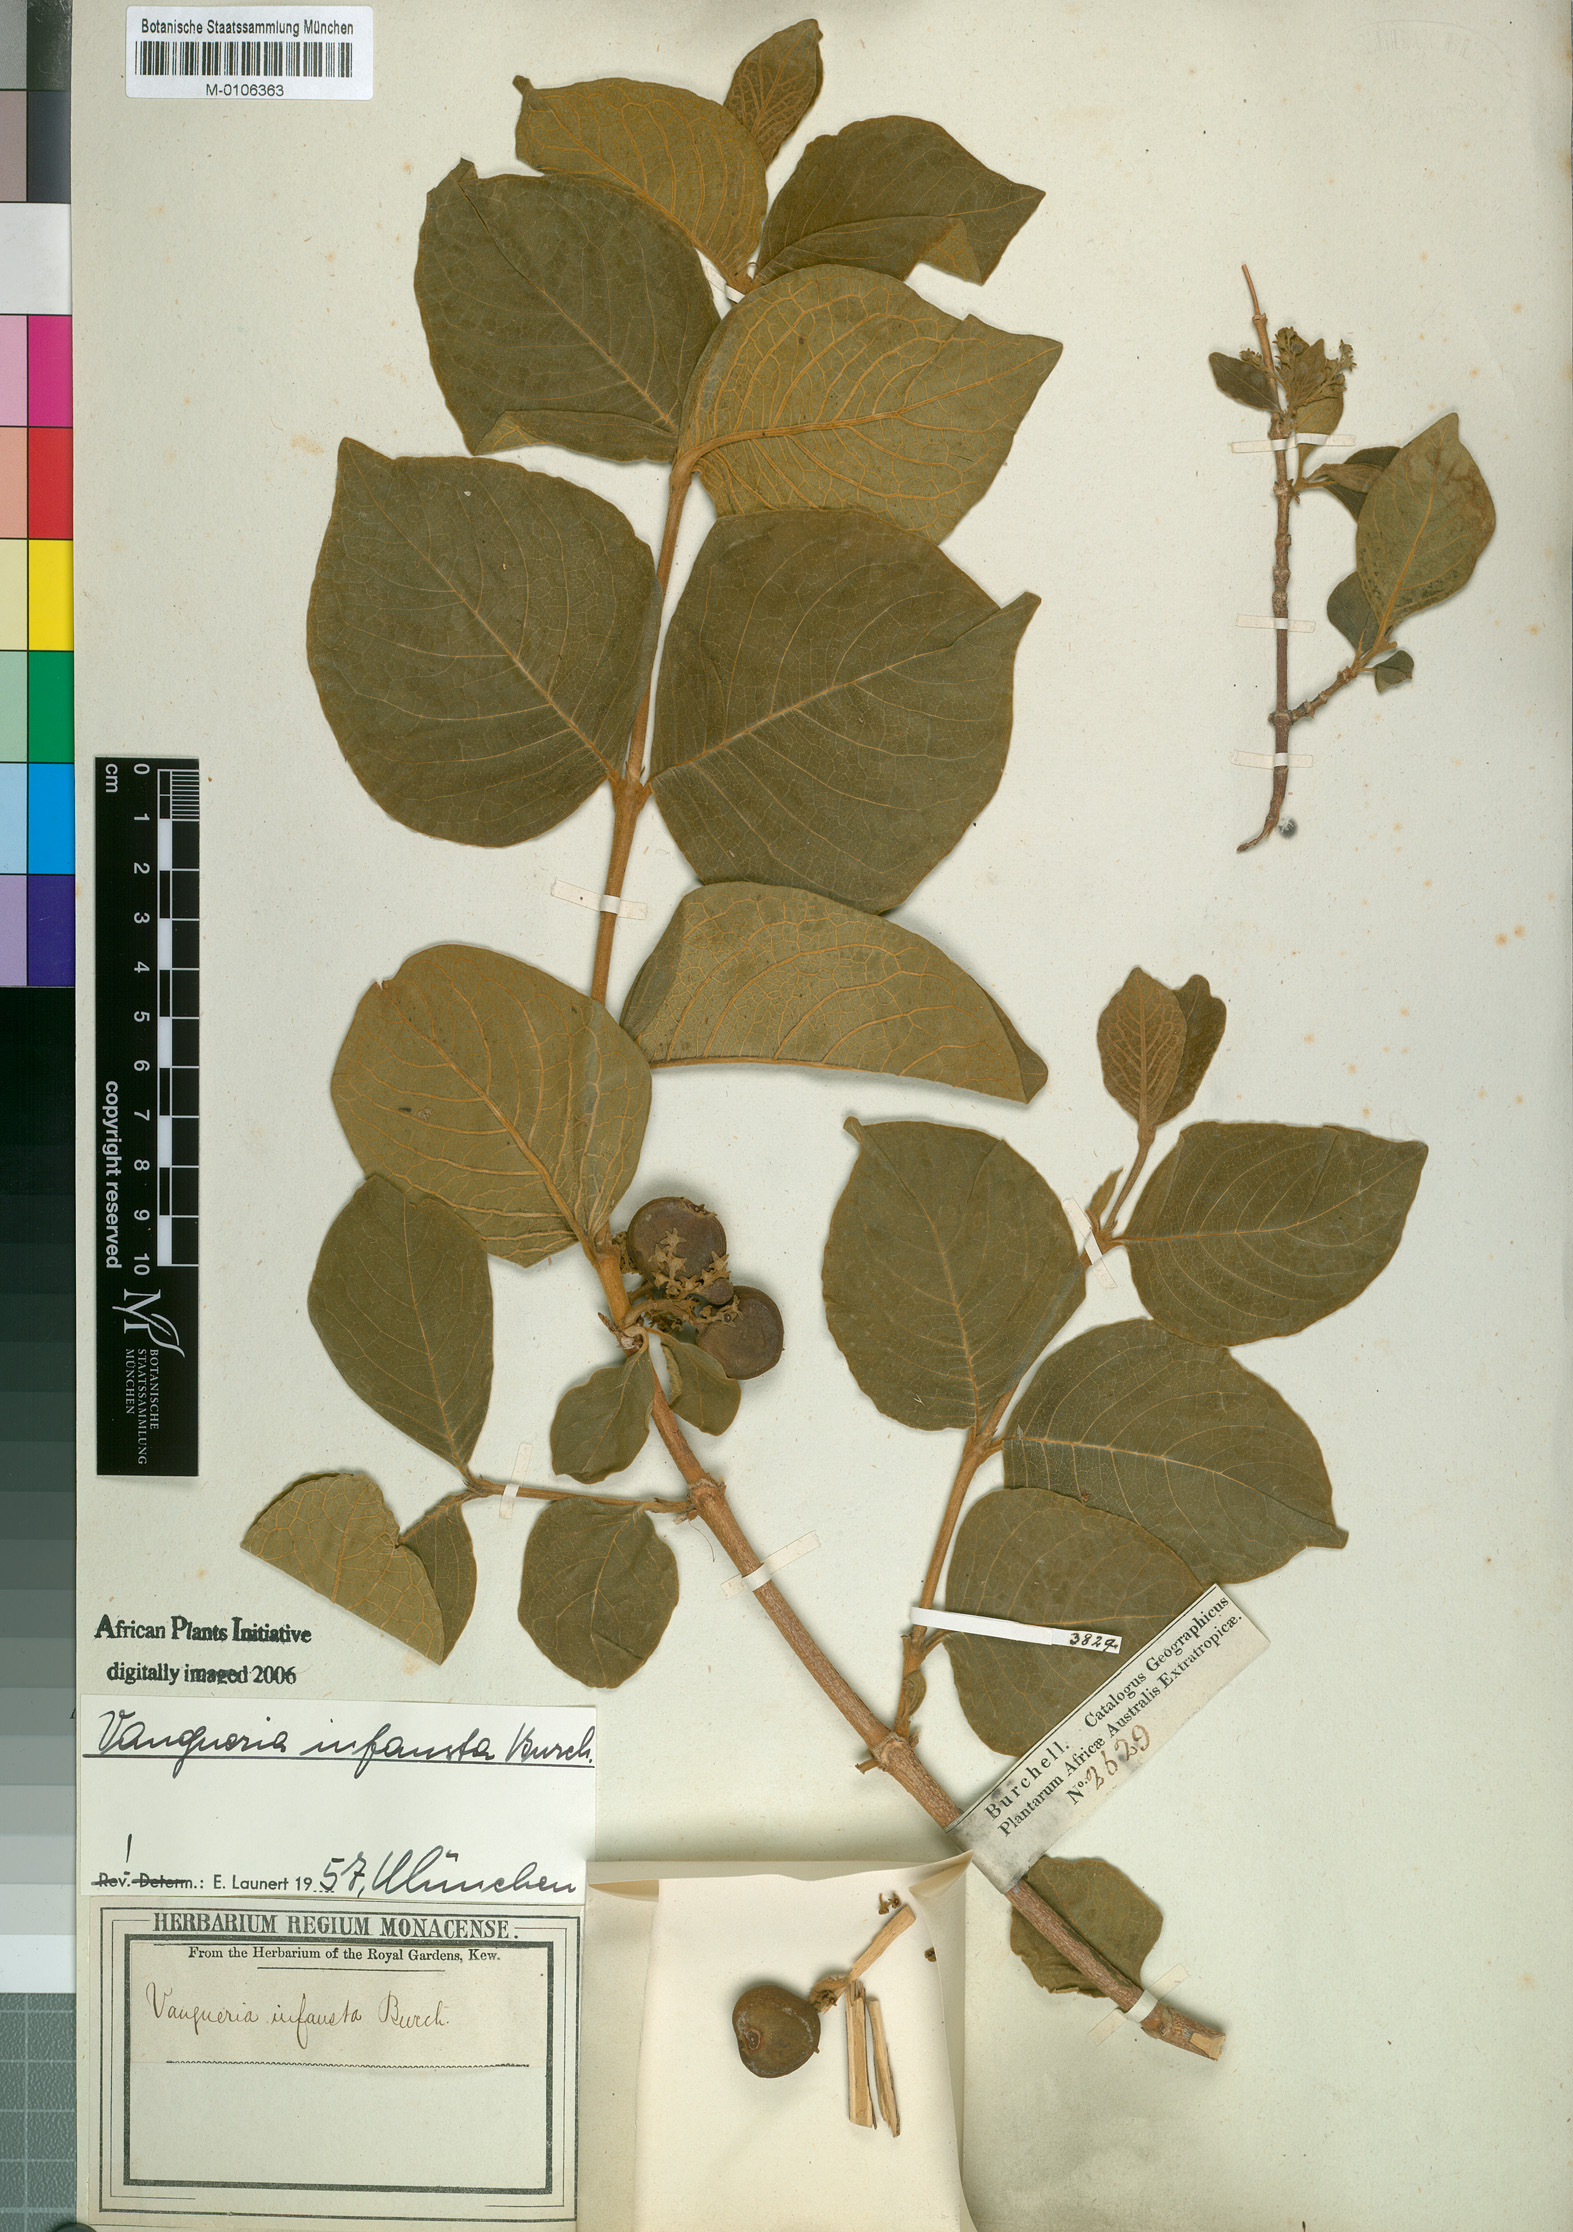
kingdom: Plantae
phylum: Tracheophyta
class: Magnoliopsida
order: Gentianales
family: Rubiaceae
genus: Vangueria
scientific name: Vangueria infausta
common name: Medlar
